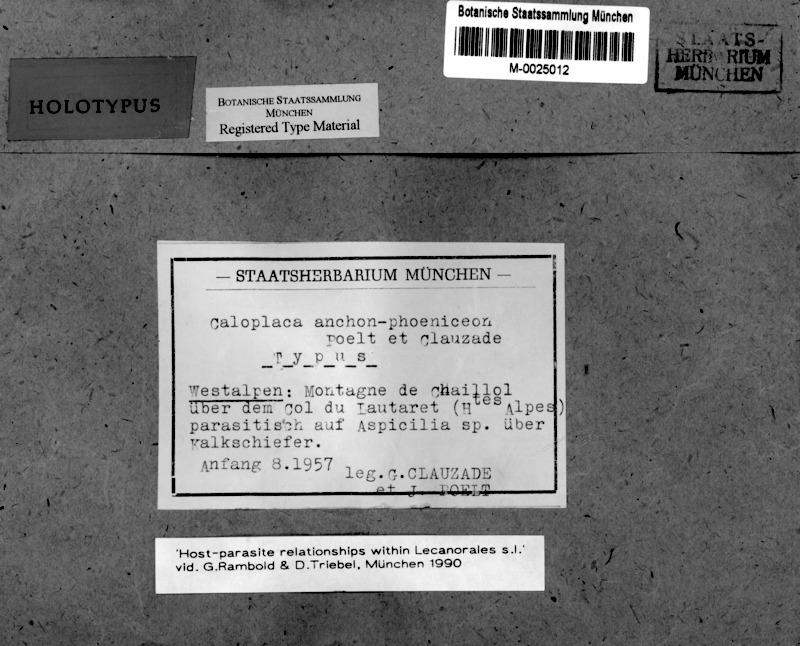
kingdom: Fungi
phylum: Ascomycota
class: Lecanoromycetes
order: Teloschistales
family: Teloschistaceae
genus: Caloplaca
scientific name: Caloplaca anchon-phoeniceon
